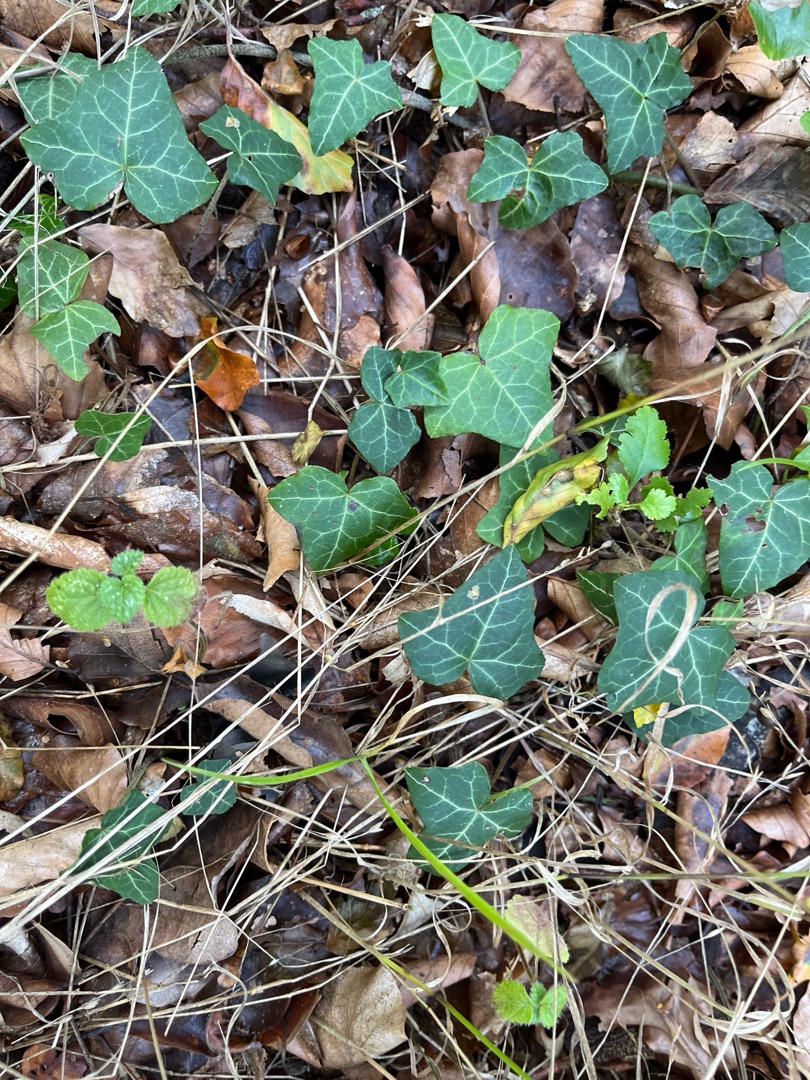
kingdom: Plantae
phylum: Tracheophyta
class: Magnoliopsida
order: Apiales
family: Araliaceae
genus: Hedera
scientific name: Hedera helix
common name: Vedbend
